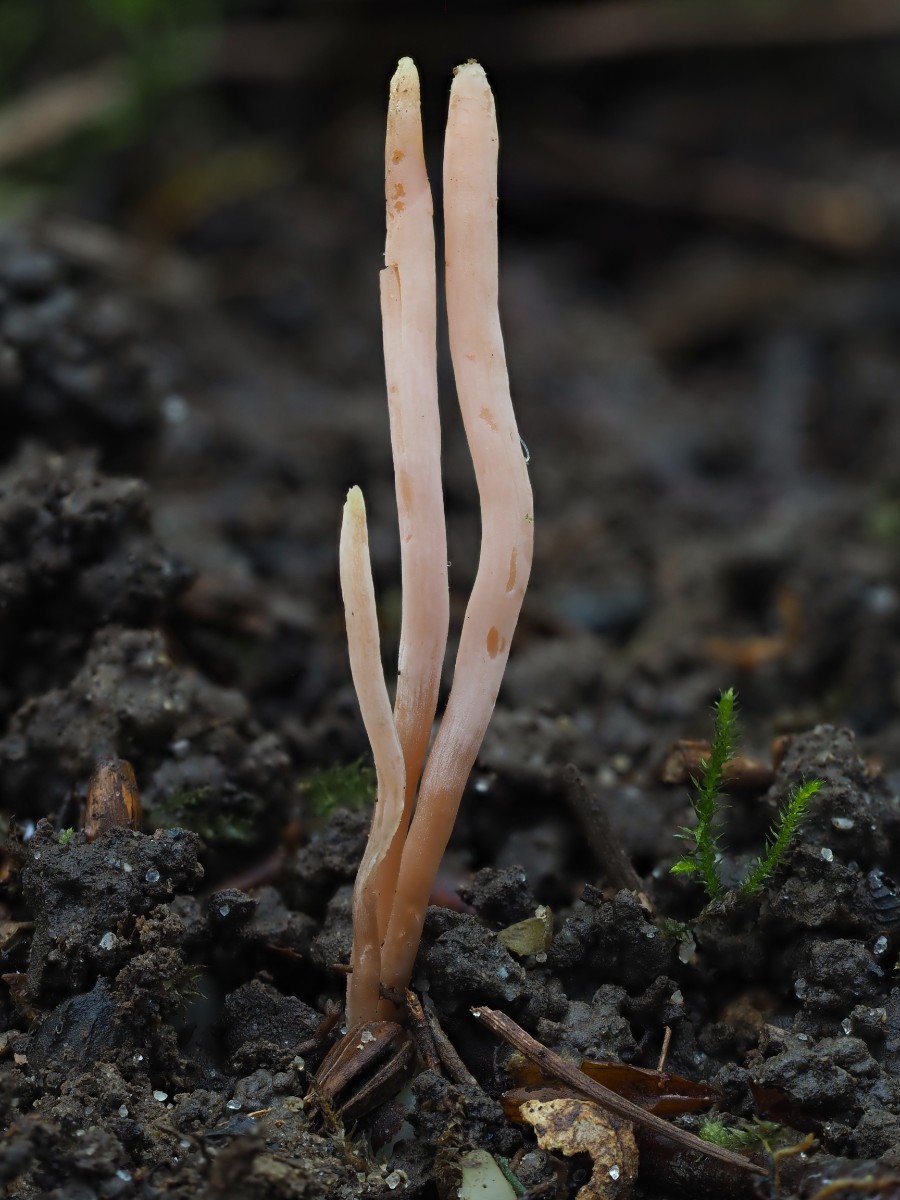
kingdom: Fungi
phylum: Basidiomycota
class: Agaricomycetes
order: Agaricales
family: Clavariaceae
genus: Clavaria
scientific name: Clavaria incarnata
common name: kødrød køllesvamp
